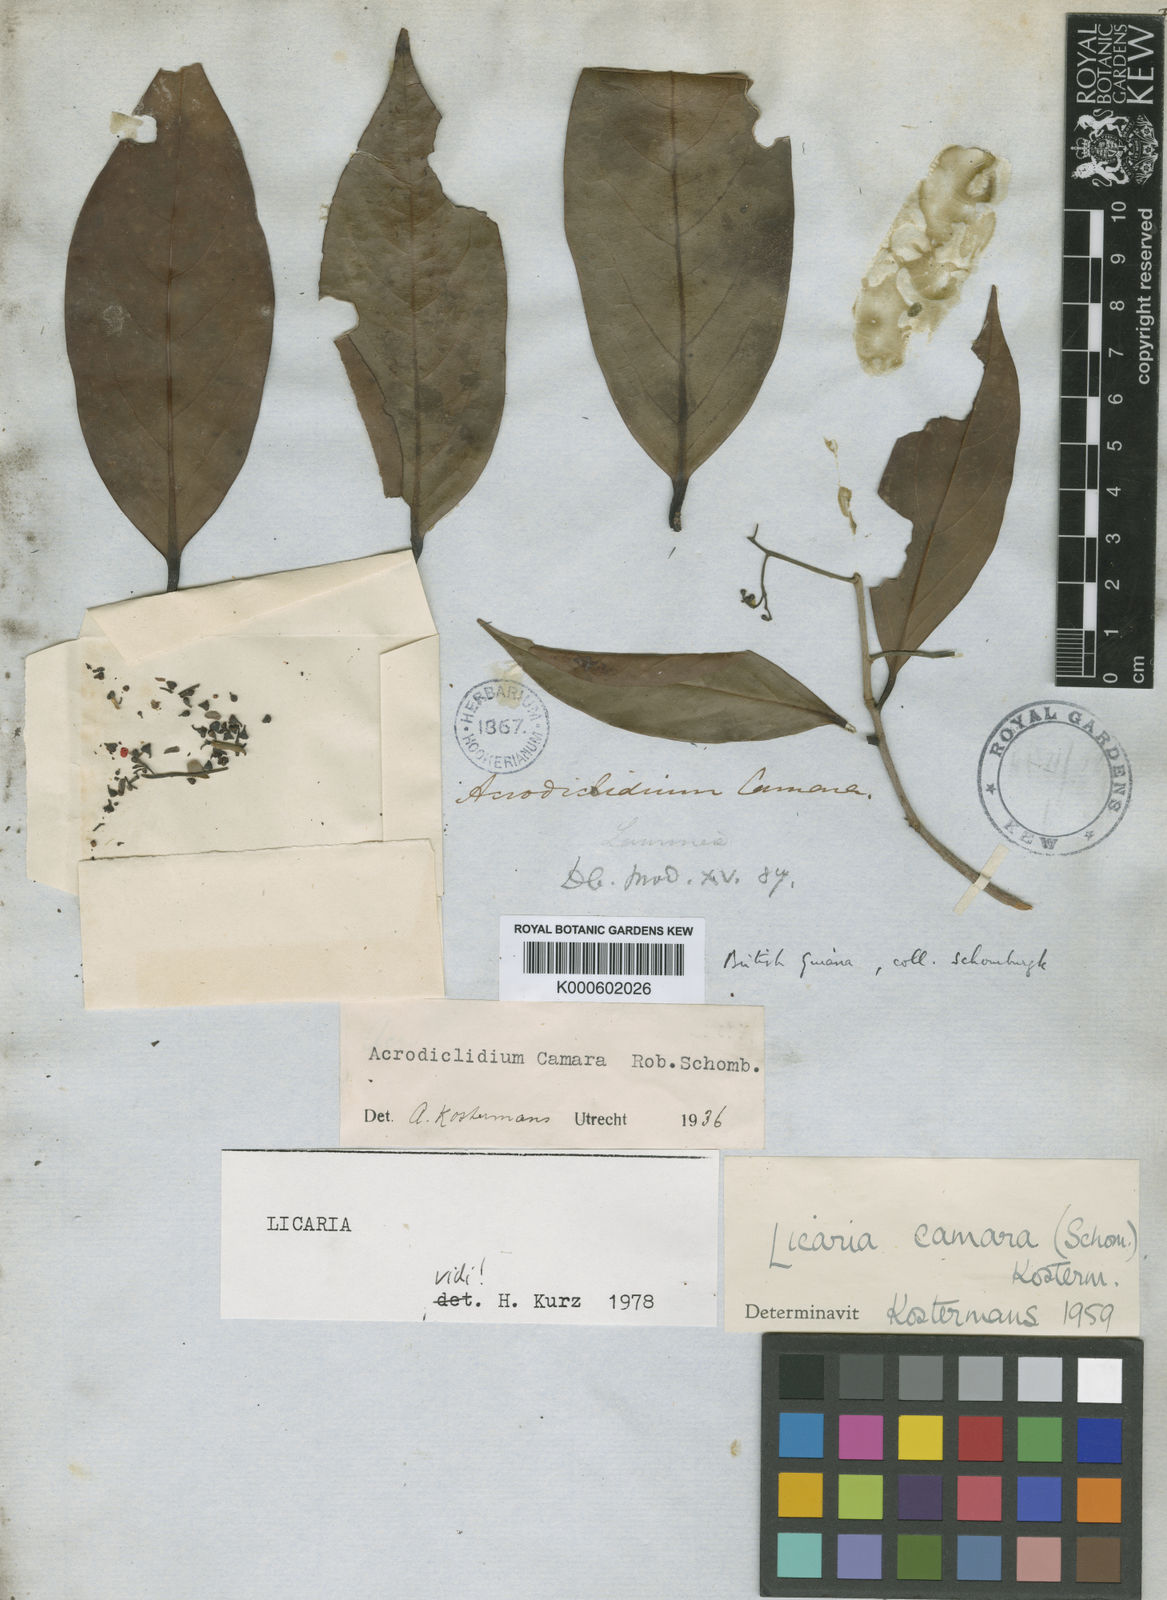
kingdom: Plantae
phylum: Tracheophyta
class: Magnoliopsida
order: Laurales
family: Lauraceae
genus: Licaria
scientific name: Licaria camara
